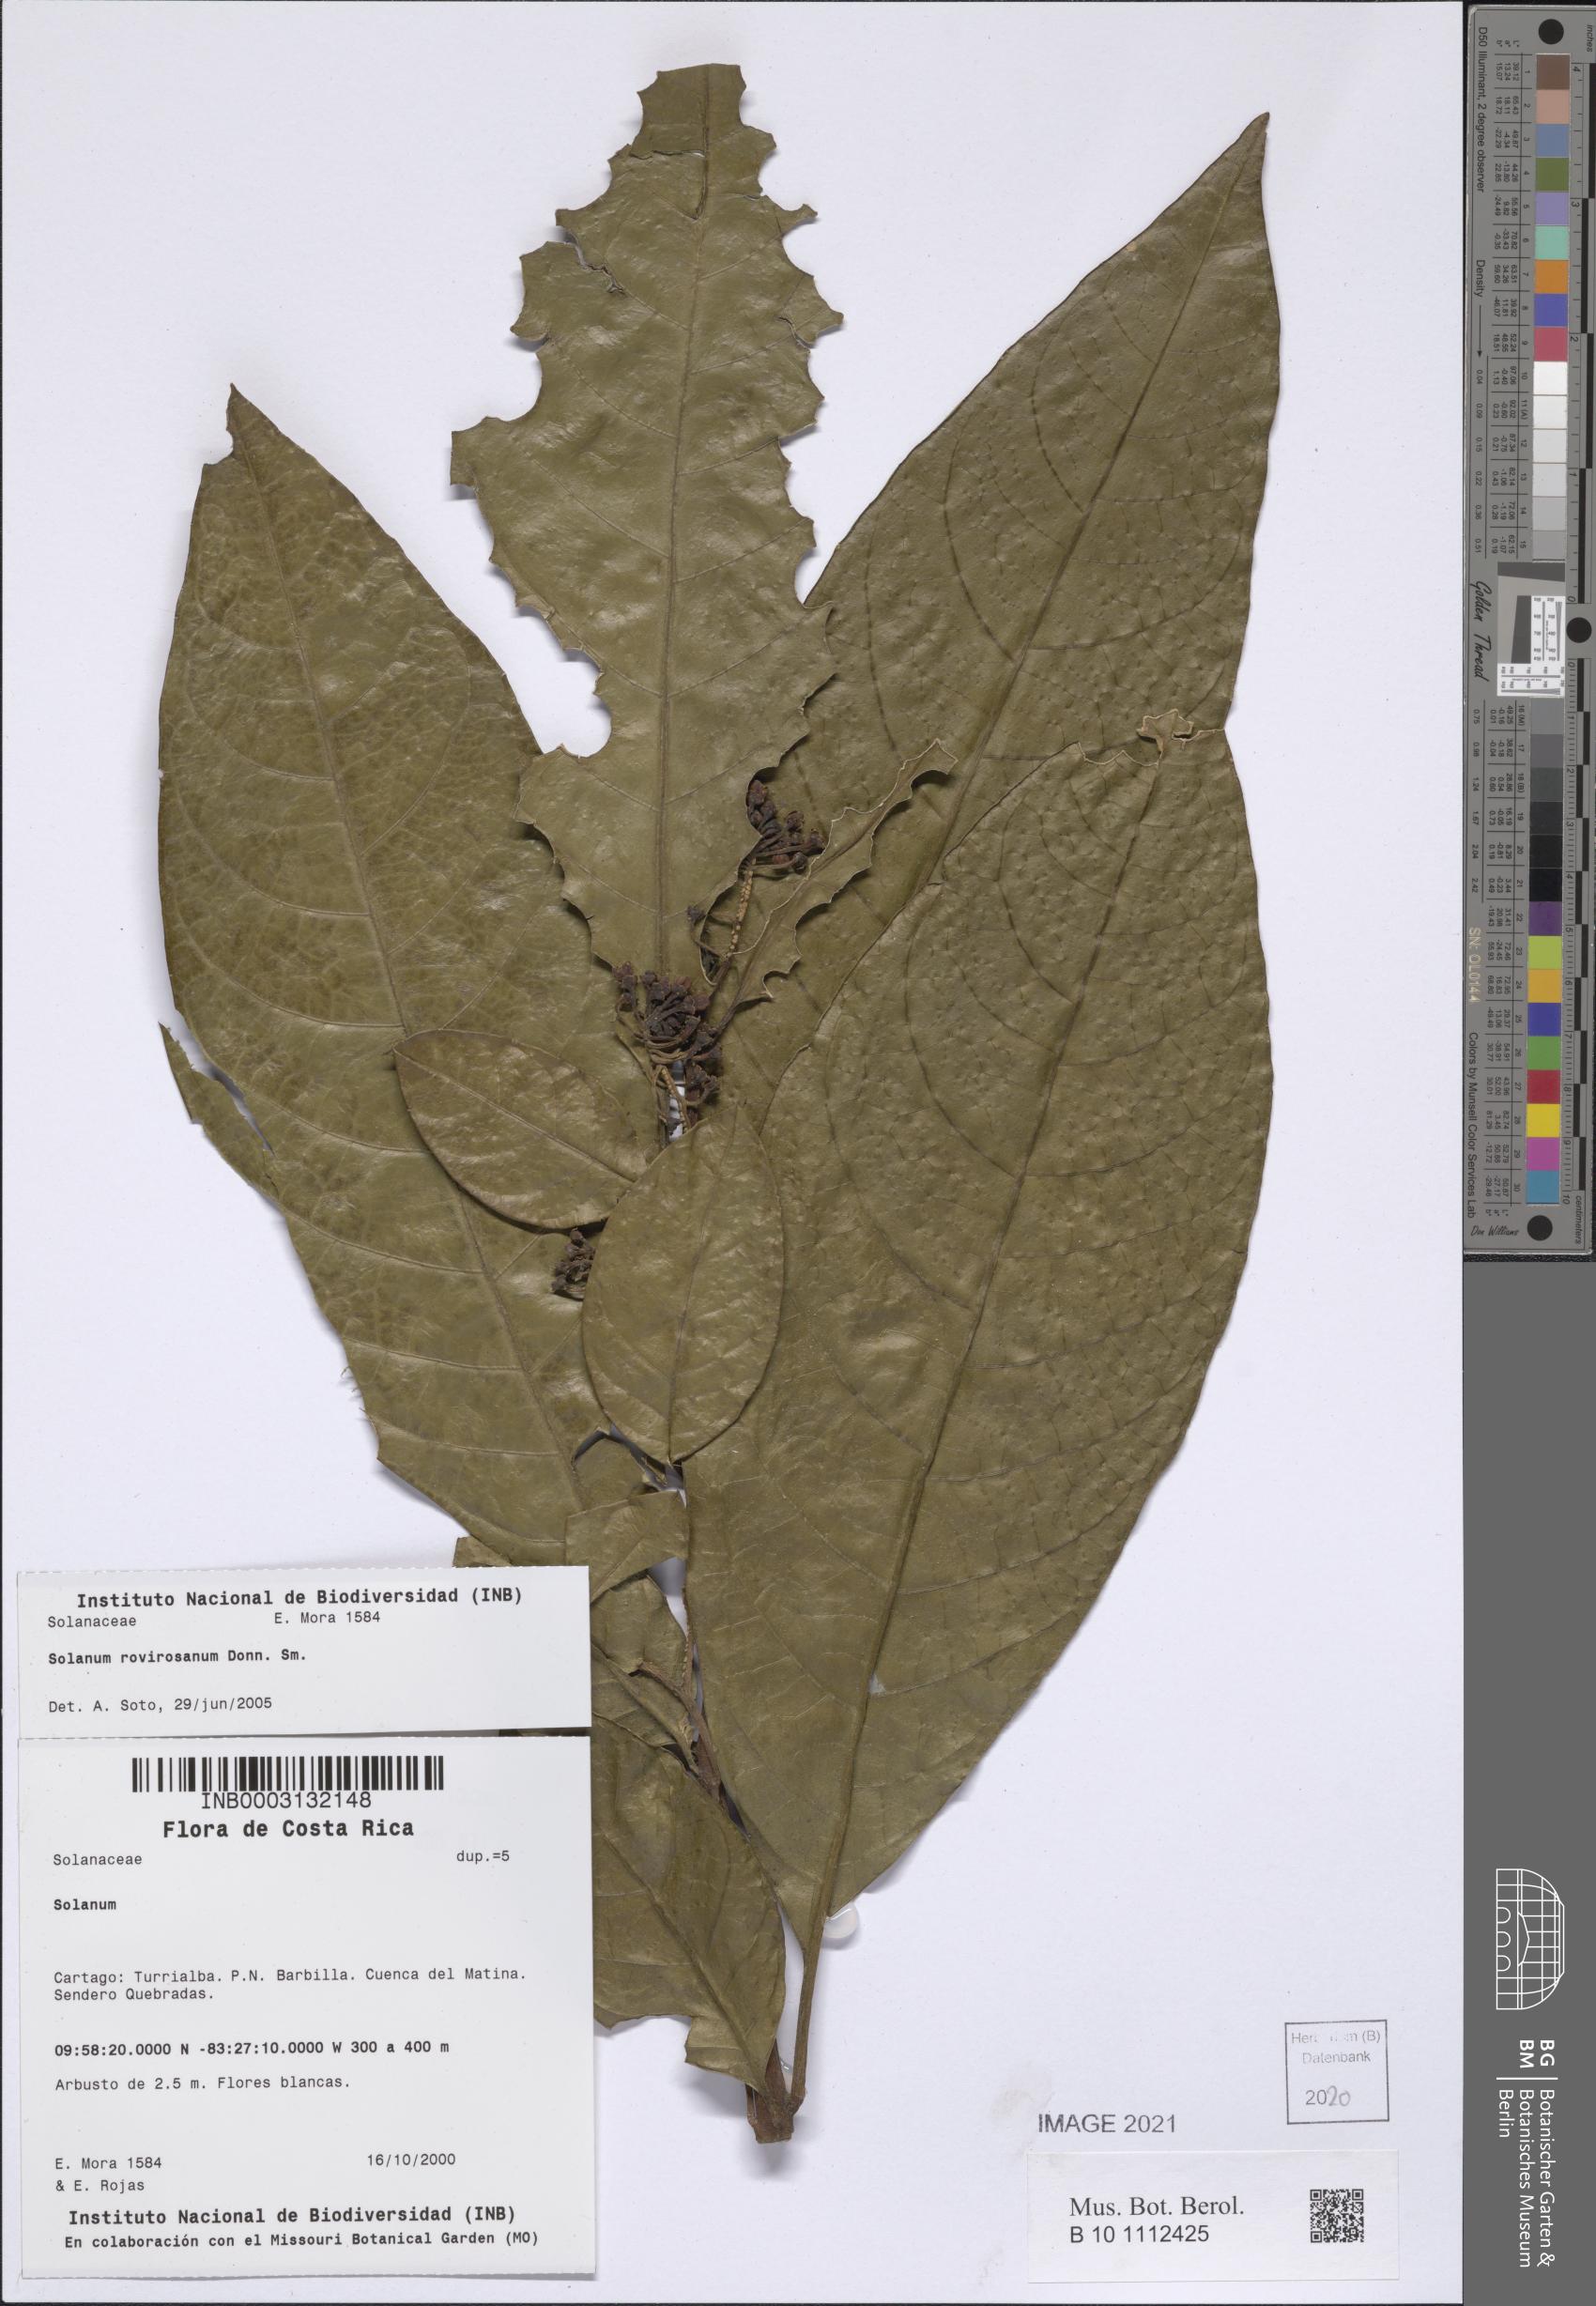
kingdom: Plantae
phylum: Tracheophyta
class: Magnoliopsida
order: Solanales
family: Solanaceae
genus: Solanum
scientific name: Solanum rovirosanum
